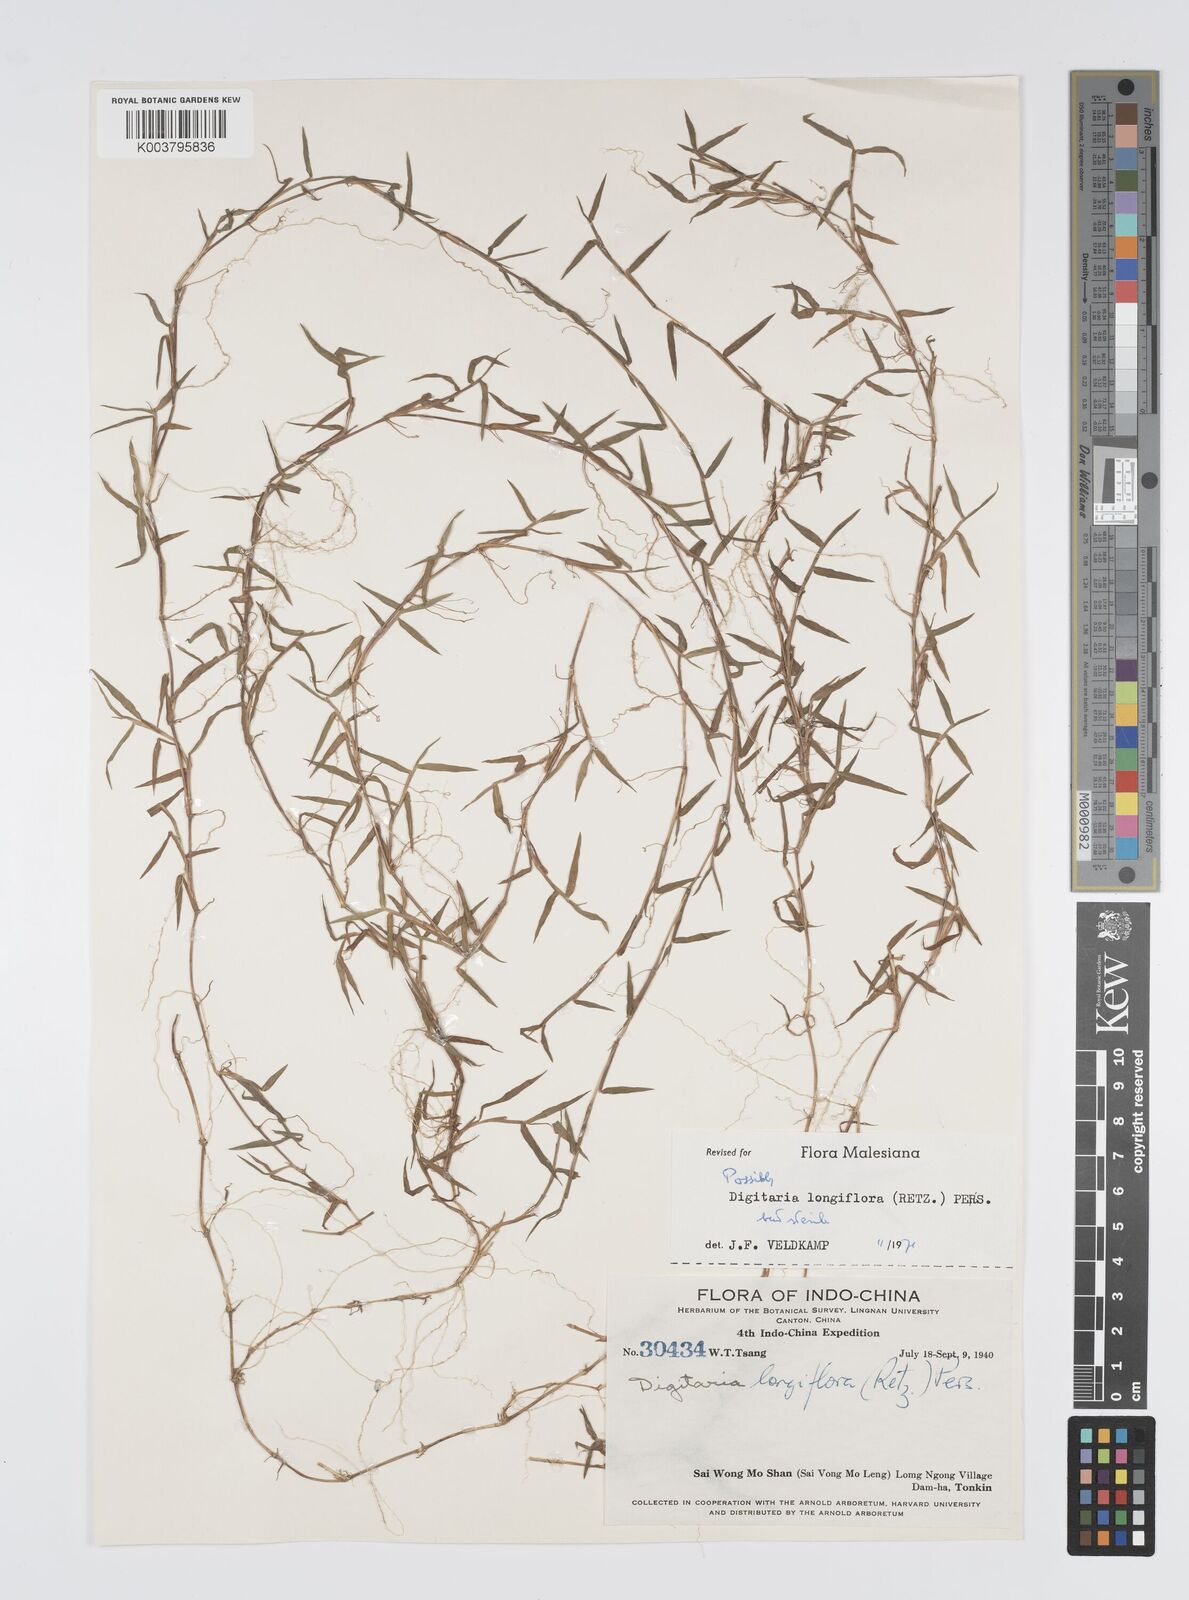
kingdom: Plantae
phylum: Tracheophyta
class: Liliopsida
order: Poales
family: Poaceae
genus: Digitaria
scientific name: Digitaria longiflora
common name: Wire crabgrass
